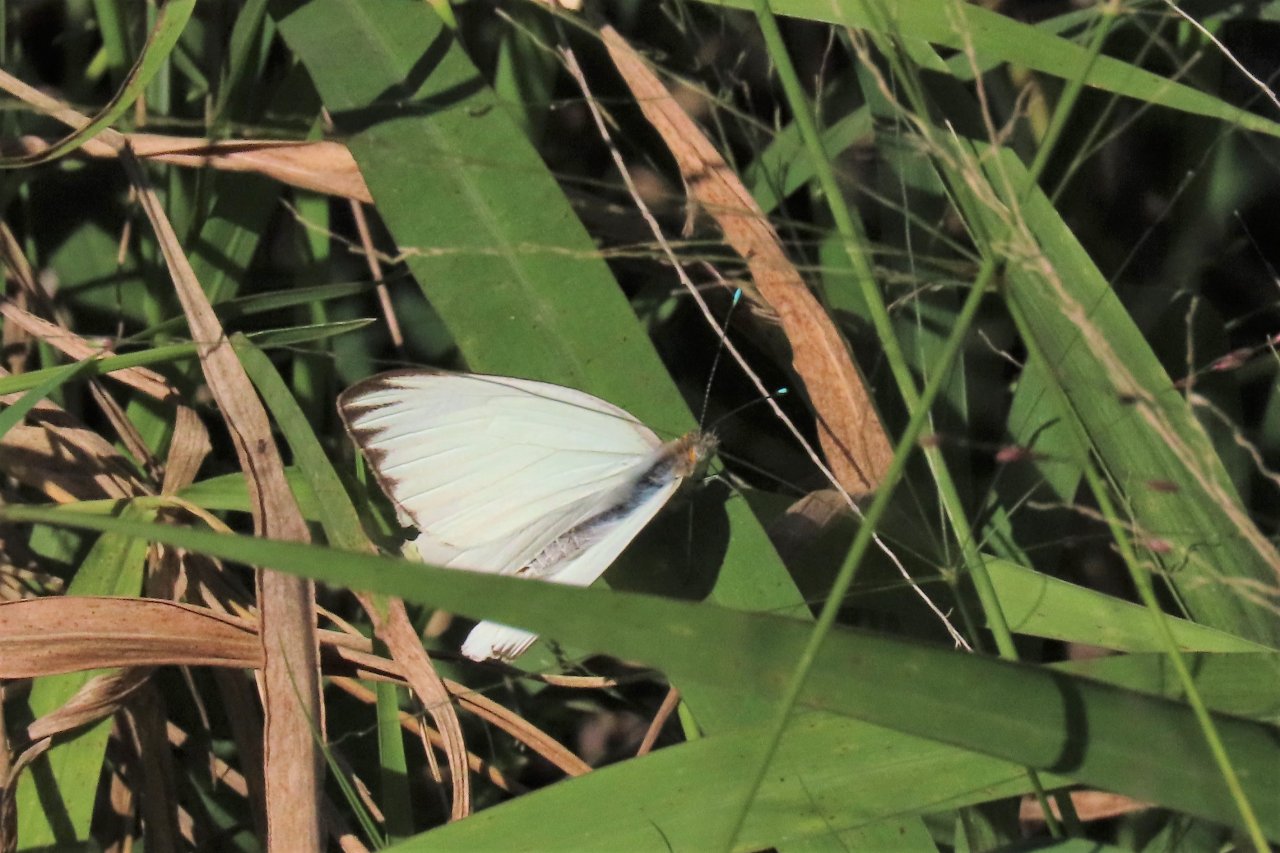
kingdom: Animalia
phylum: Arthropoda
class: Insecta
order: Lepidoptera
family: Pieridae
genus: Ascia
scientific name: Ascia monuste
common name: Great Southern White
